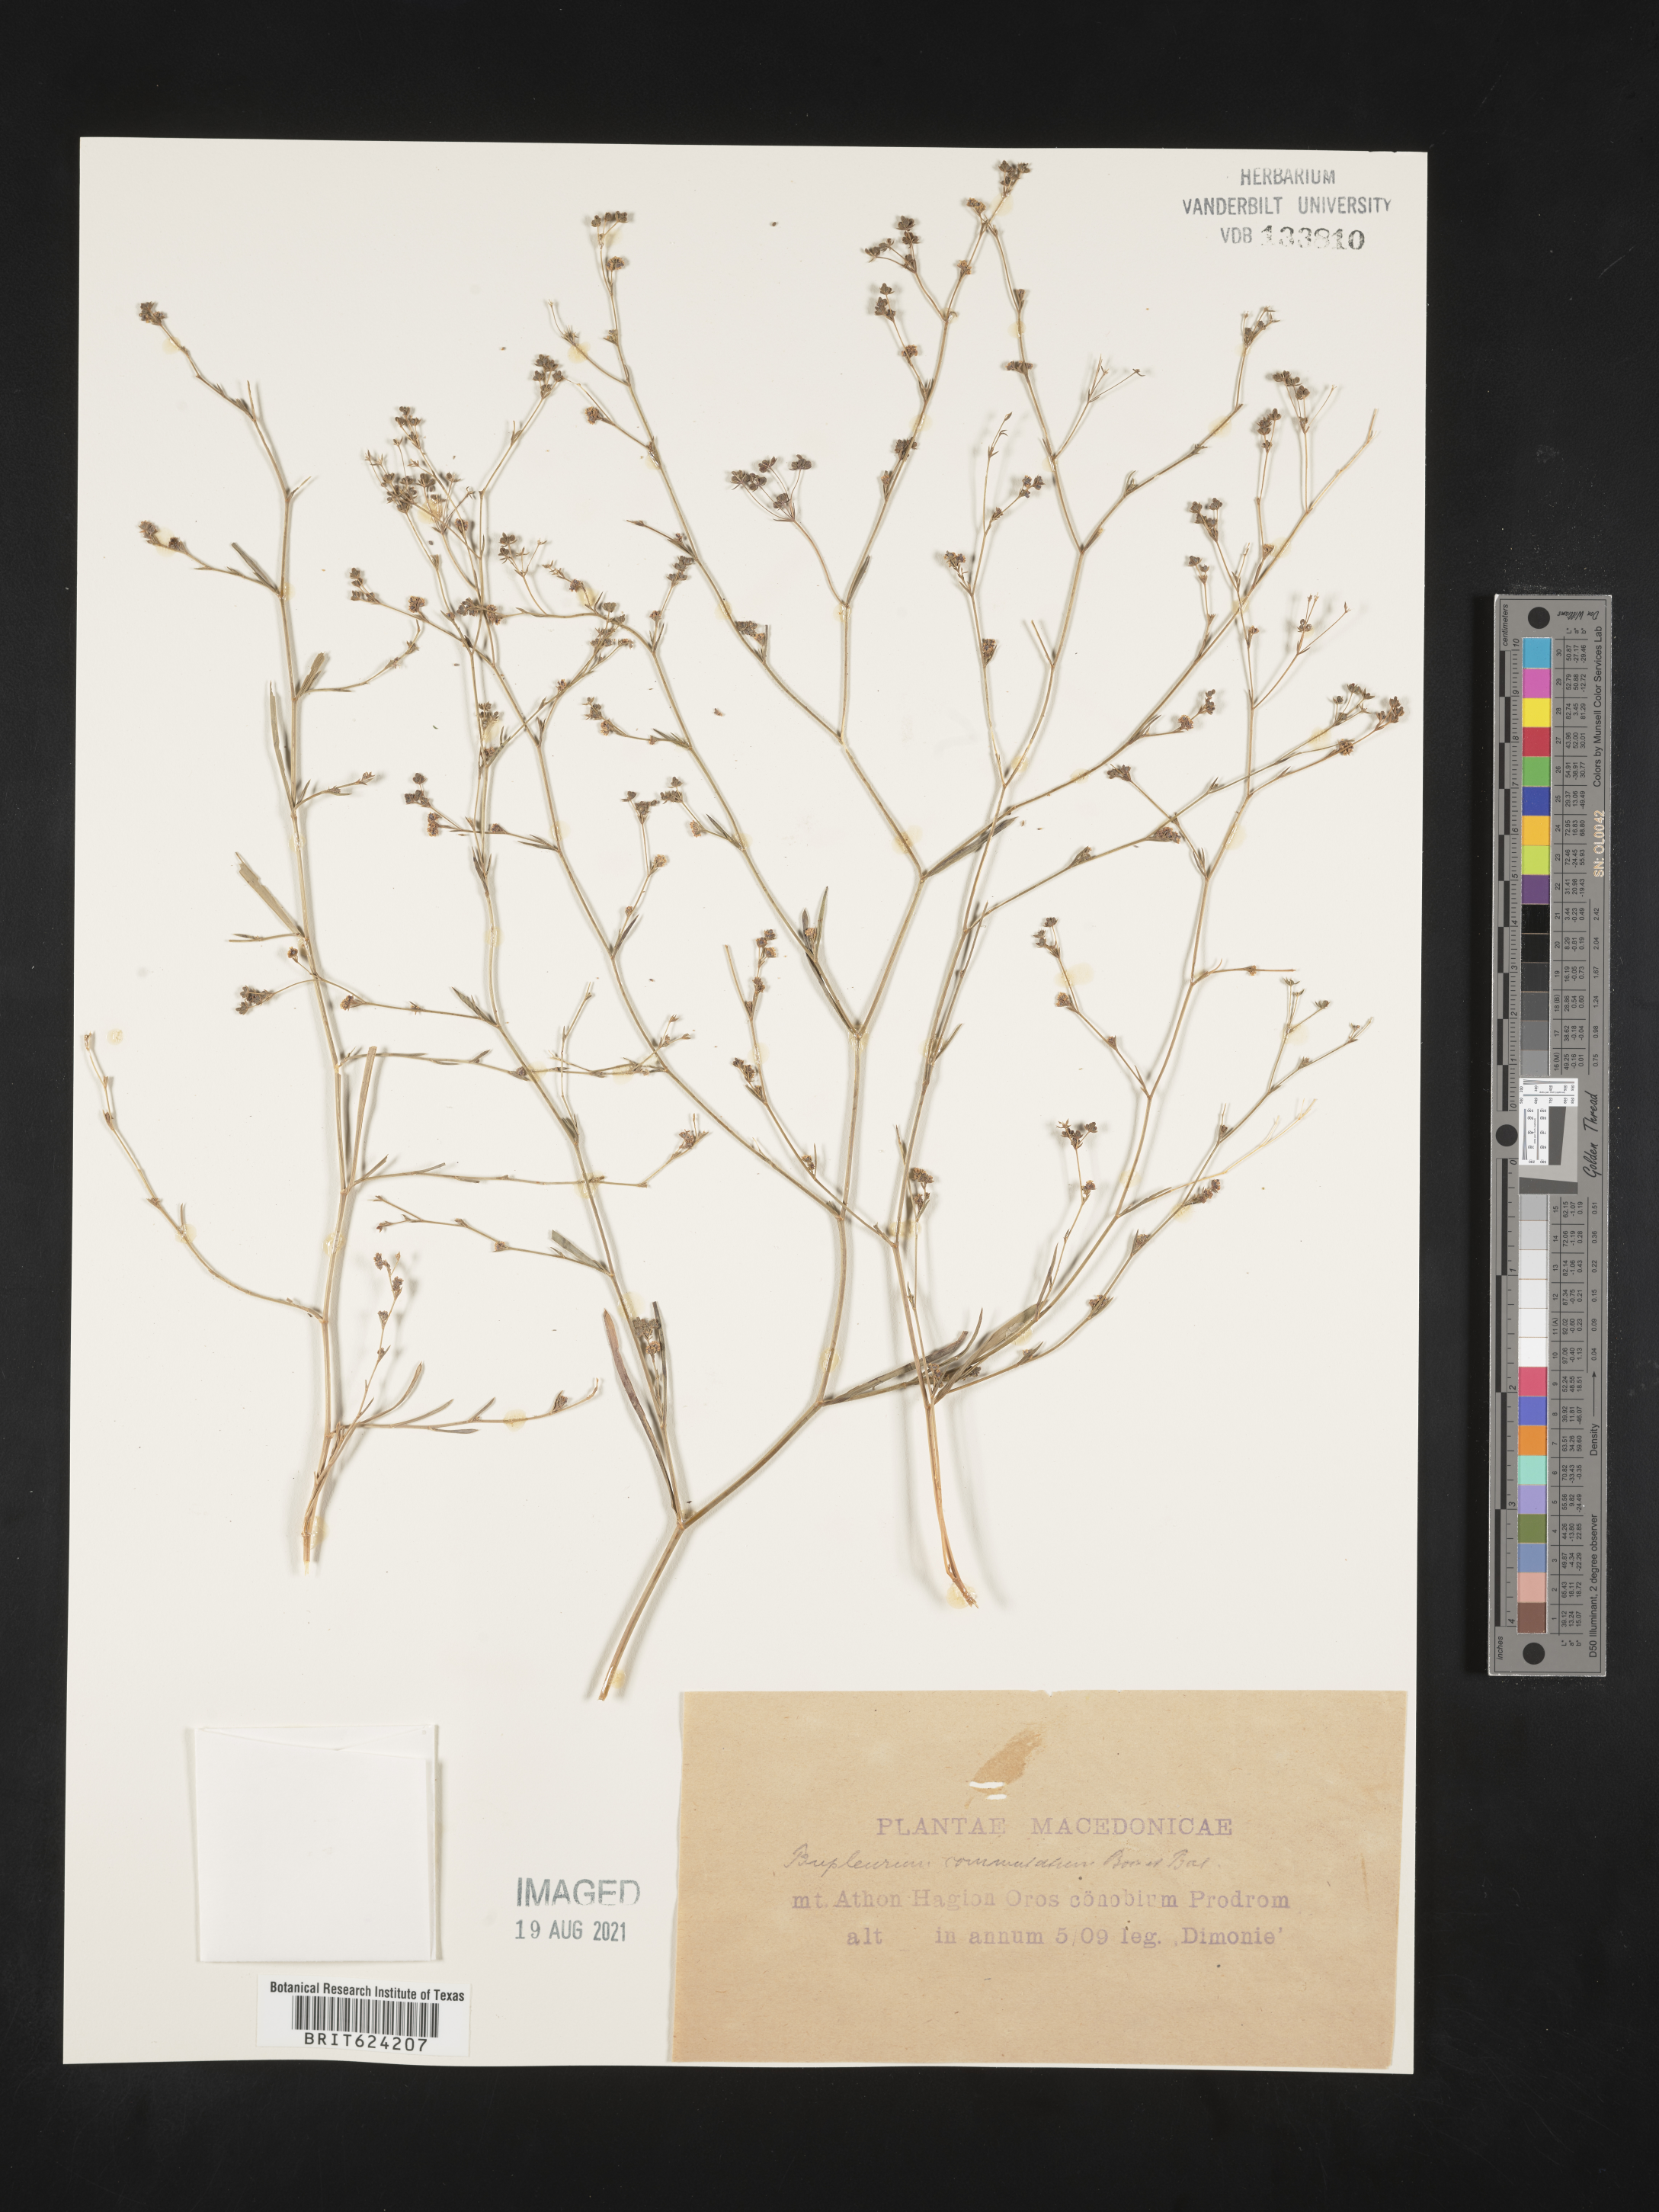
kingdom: Plantae
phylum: Tracheophyta
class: Magnoliopsida
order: Apiales
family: Apiaceae
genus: Bupleurum
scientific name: Bupleurum commutatum
